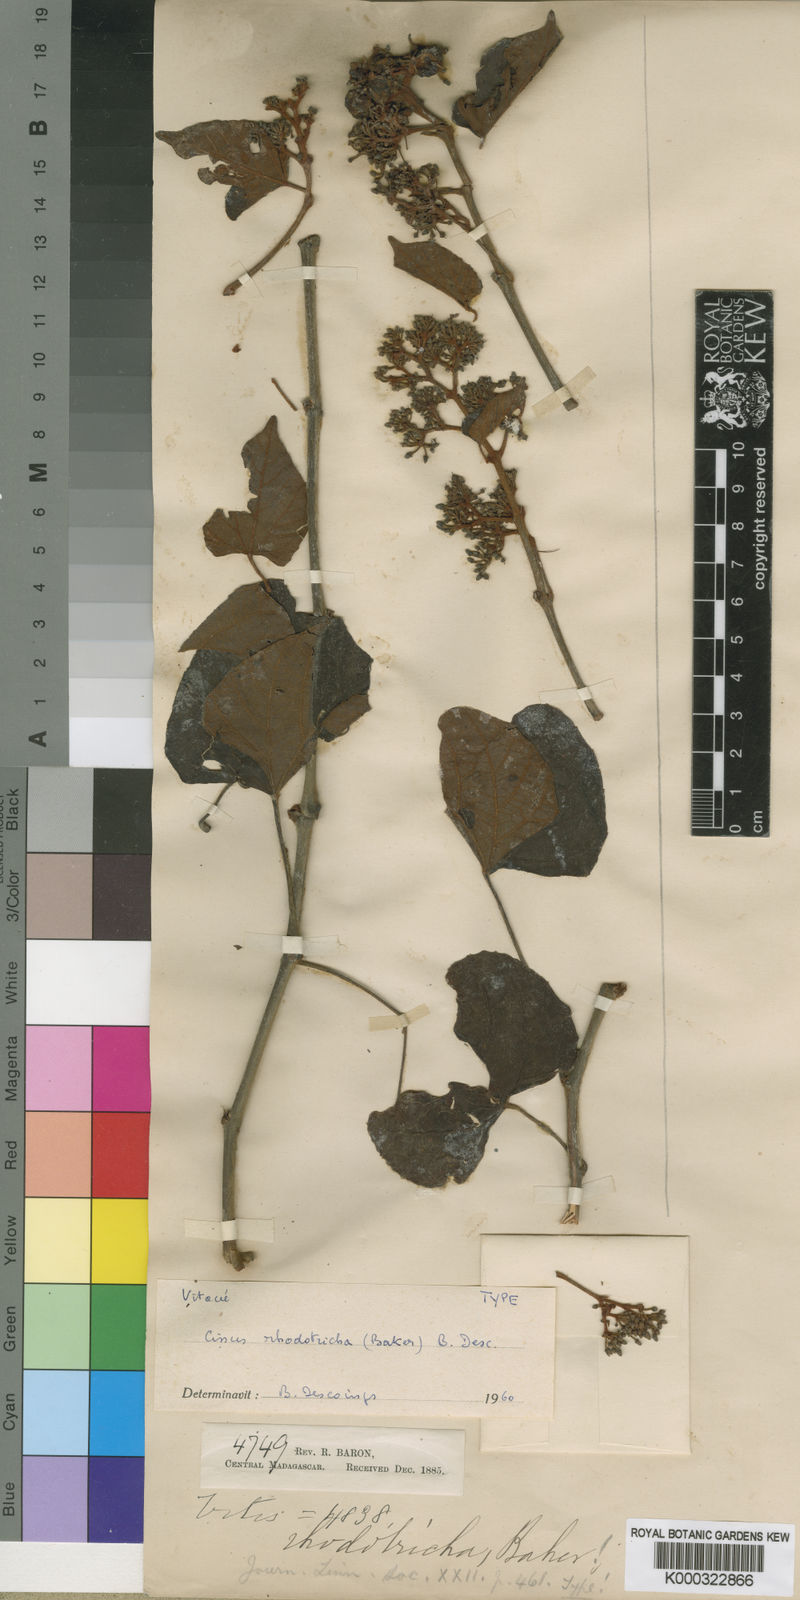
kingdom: Plantae
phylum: Tracheophyta
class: Magnoliopsida
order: Vitales
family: Vitaceae
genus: Cissus
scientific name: Cissus rhodotricha
